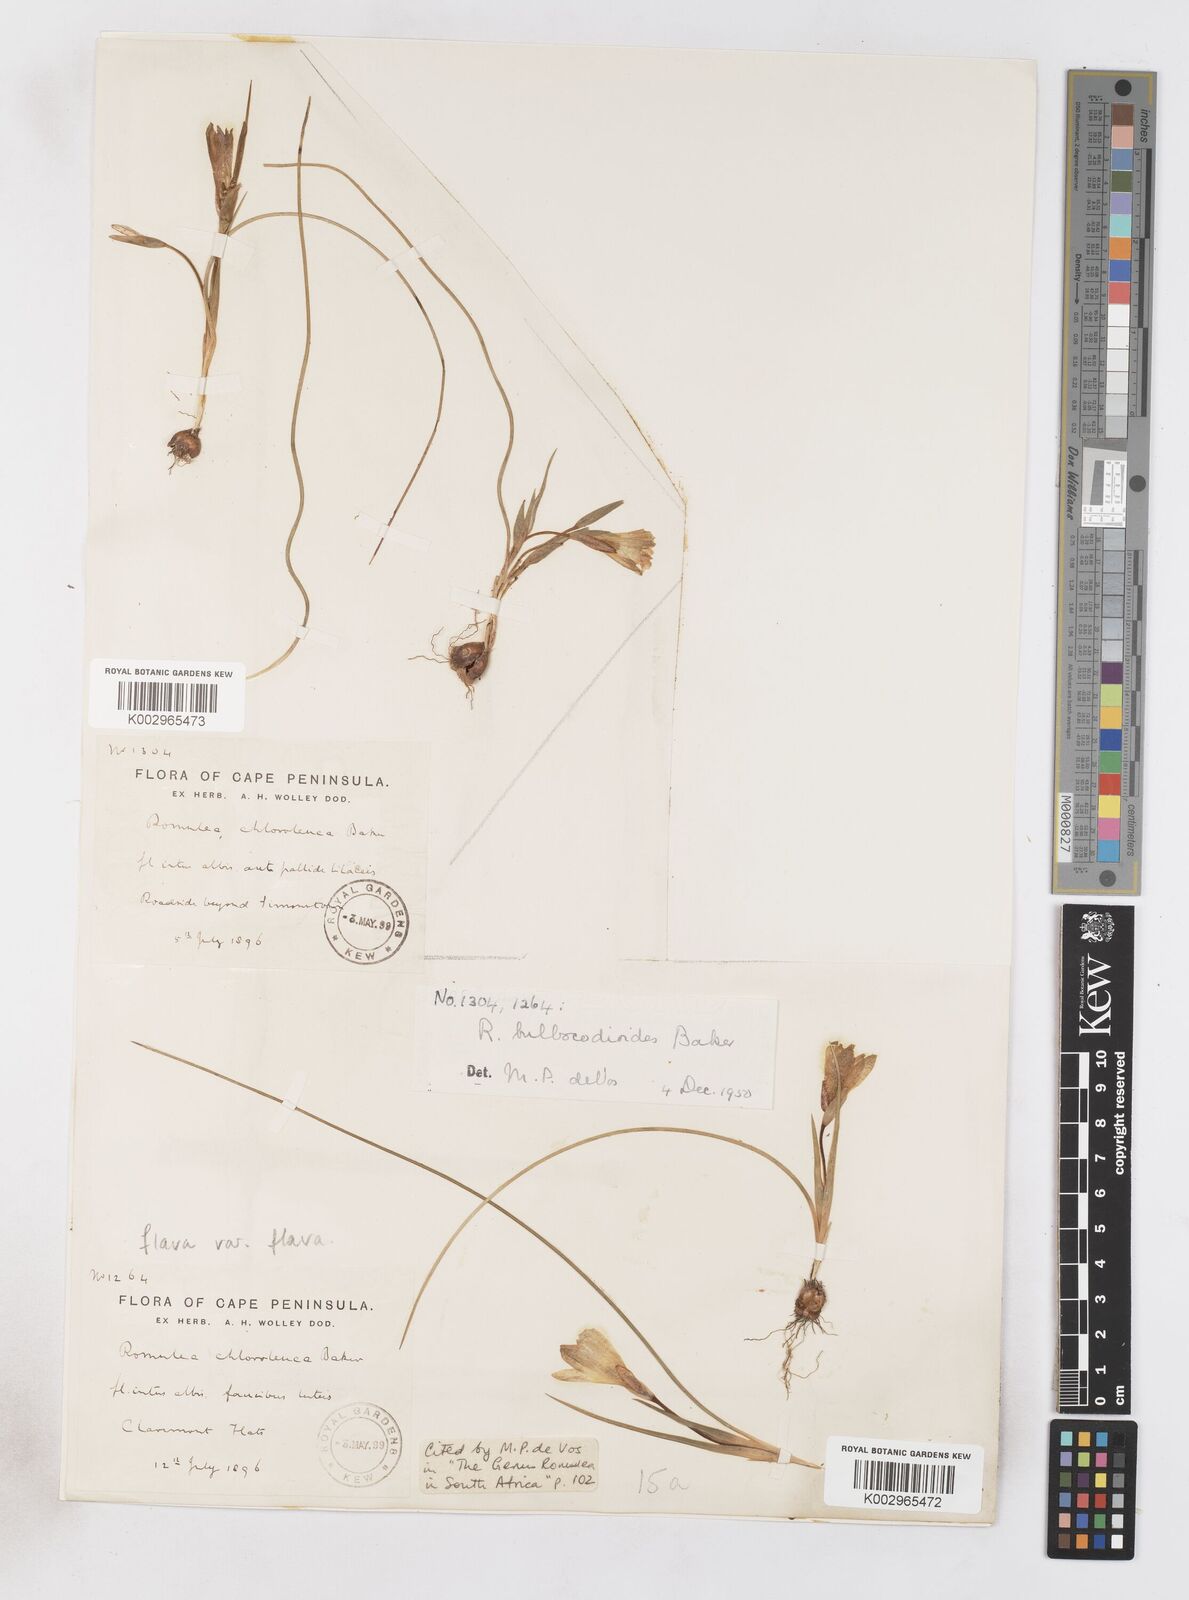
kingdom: Plantae
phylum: Tracheophyta
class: Liliopsida
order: Asparagales
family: Iridaceae
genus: Romulea
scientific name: Romulea flava
